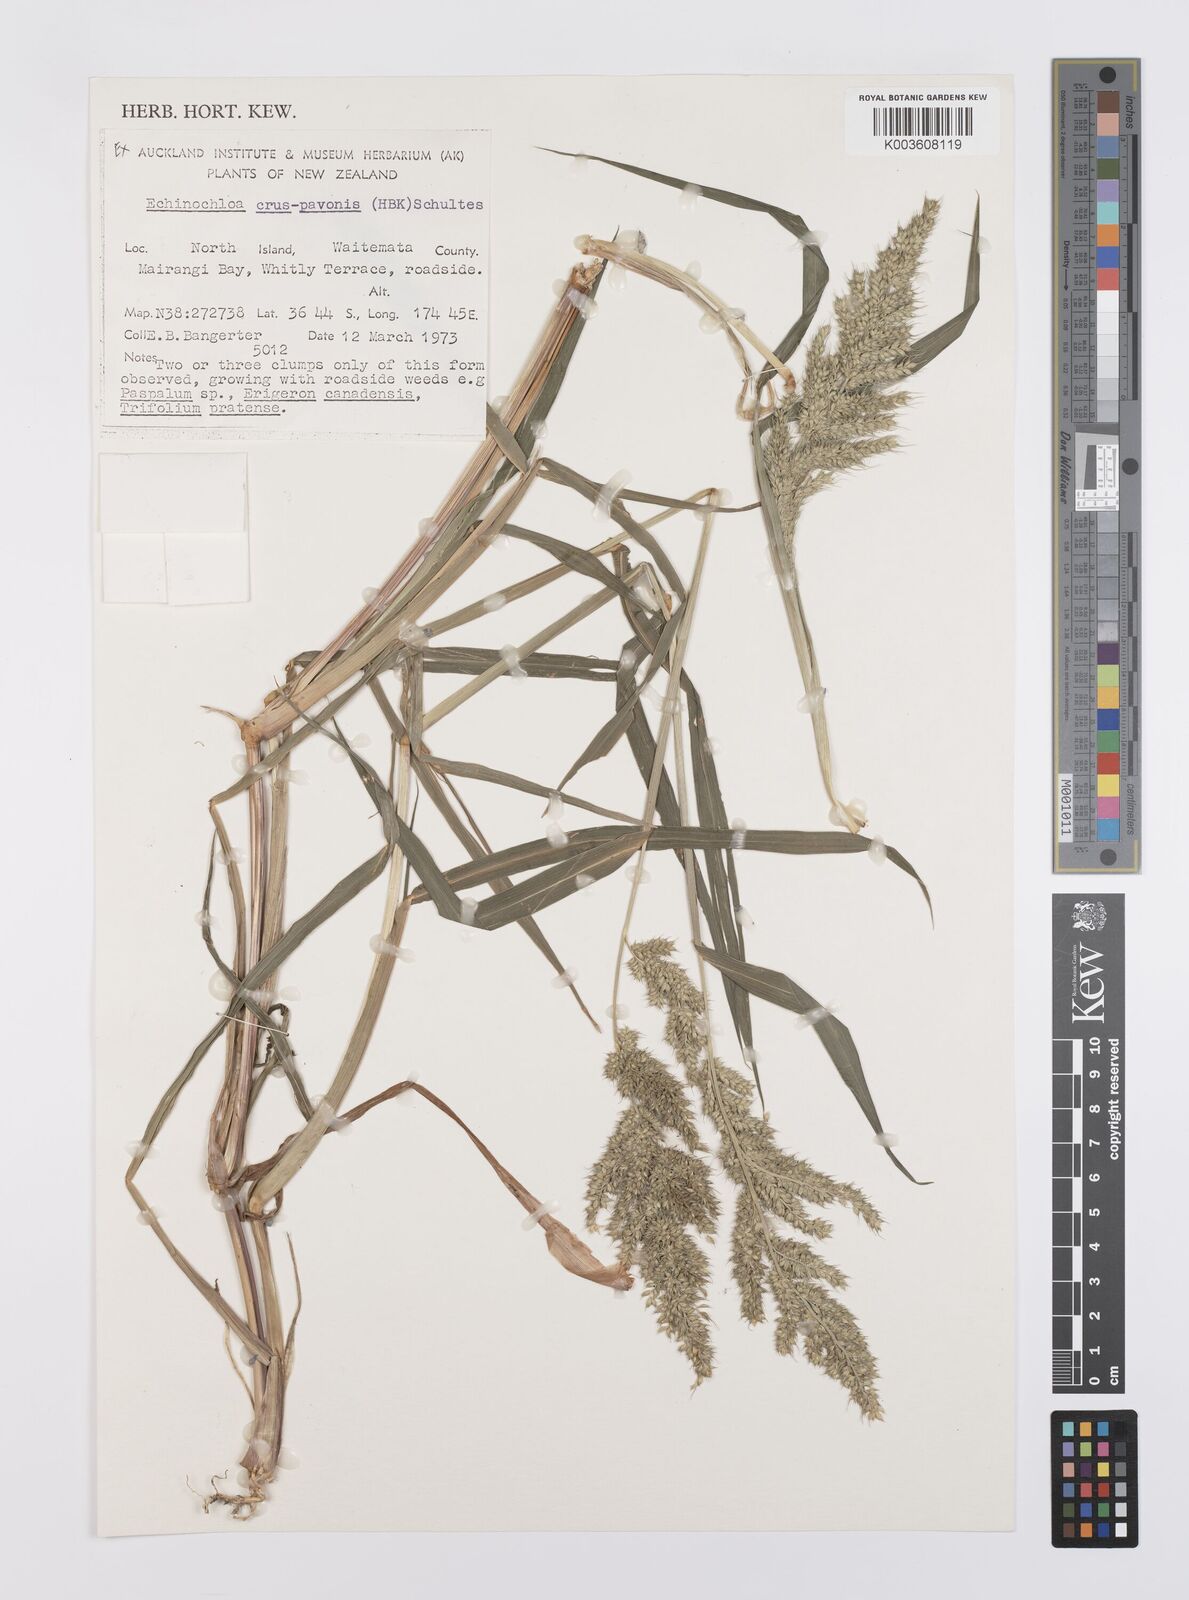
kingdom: Plantae
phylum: Tracheophyta
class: Liliopsida
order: Poales
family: Poaceae
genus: Echinochloa
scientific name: Echinochloa crus-galli
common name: Cockspur
